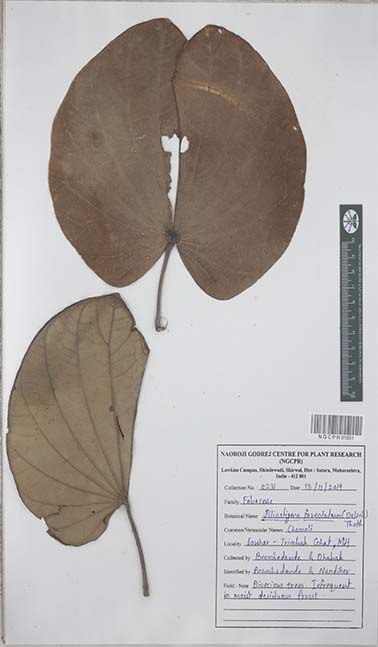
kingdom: Plantae
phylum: Tracheophyta
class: Magnoliopsida
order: Fabales
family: Fabaceae
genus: Piliostigma
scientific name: Piliostigma foveolatum
